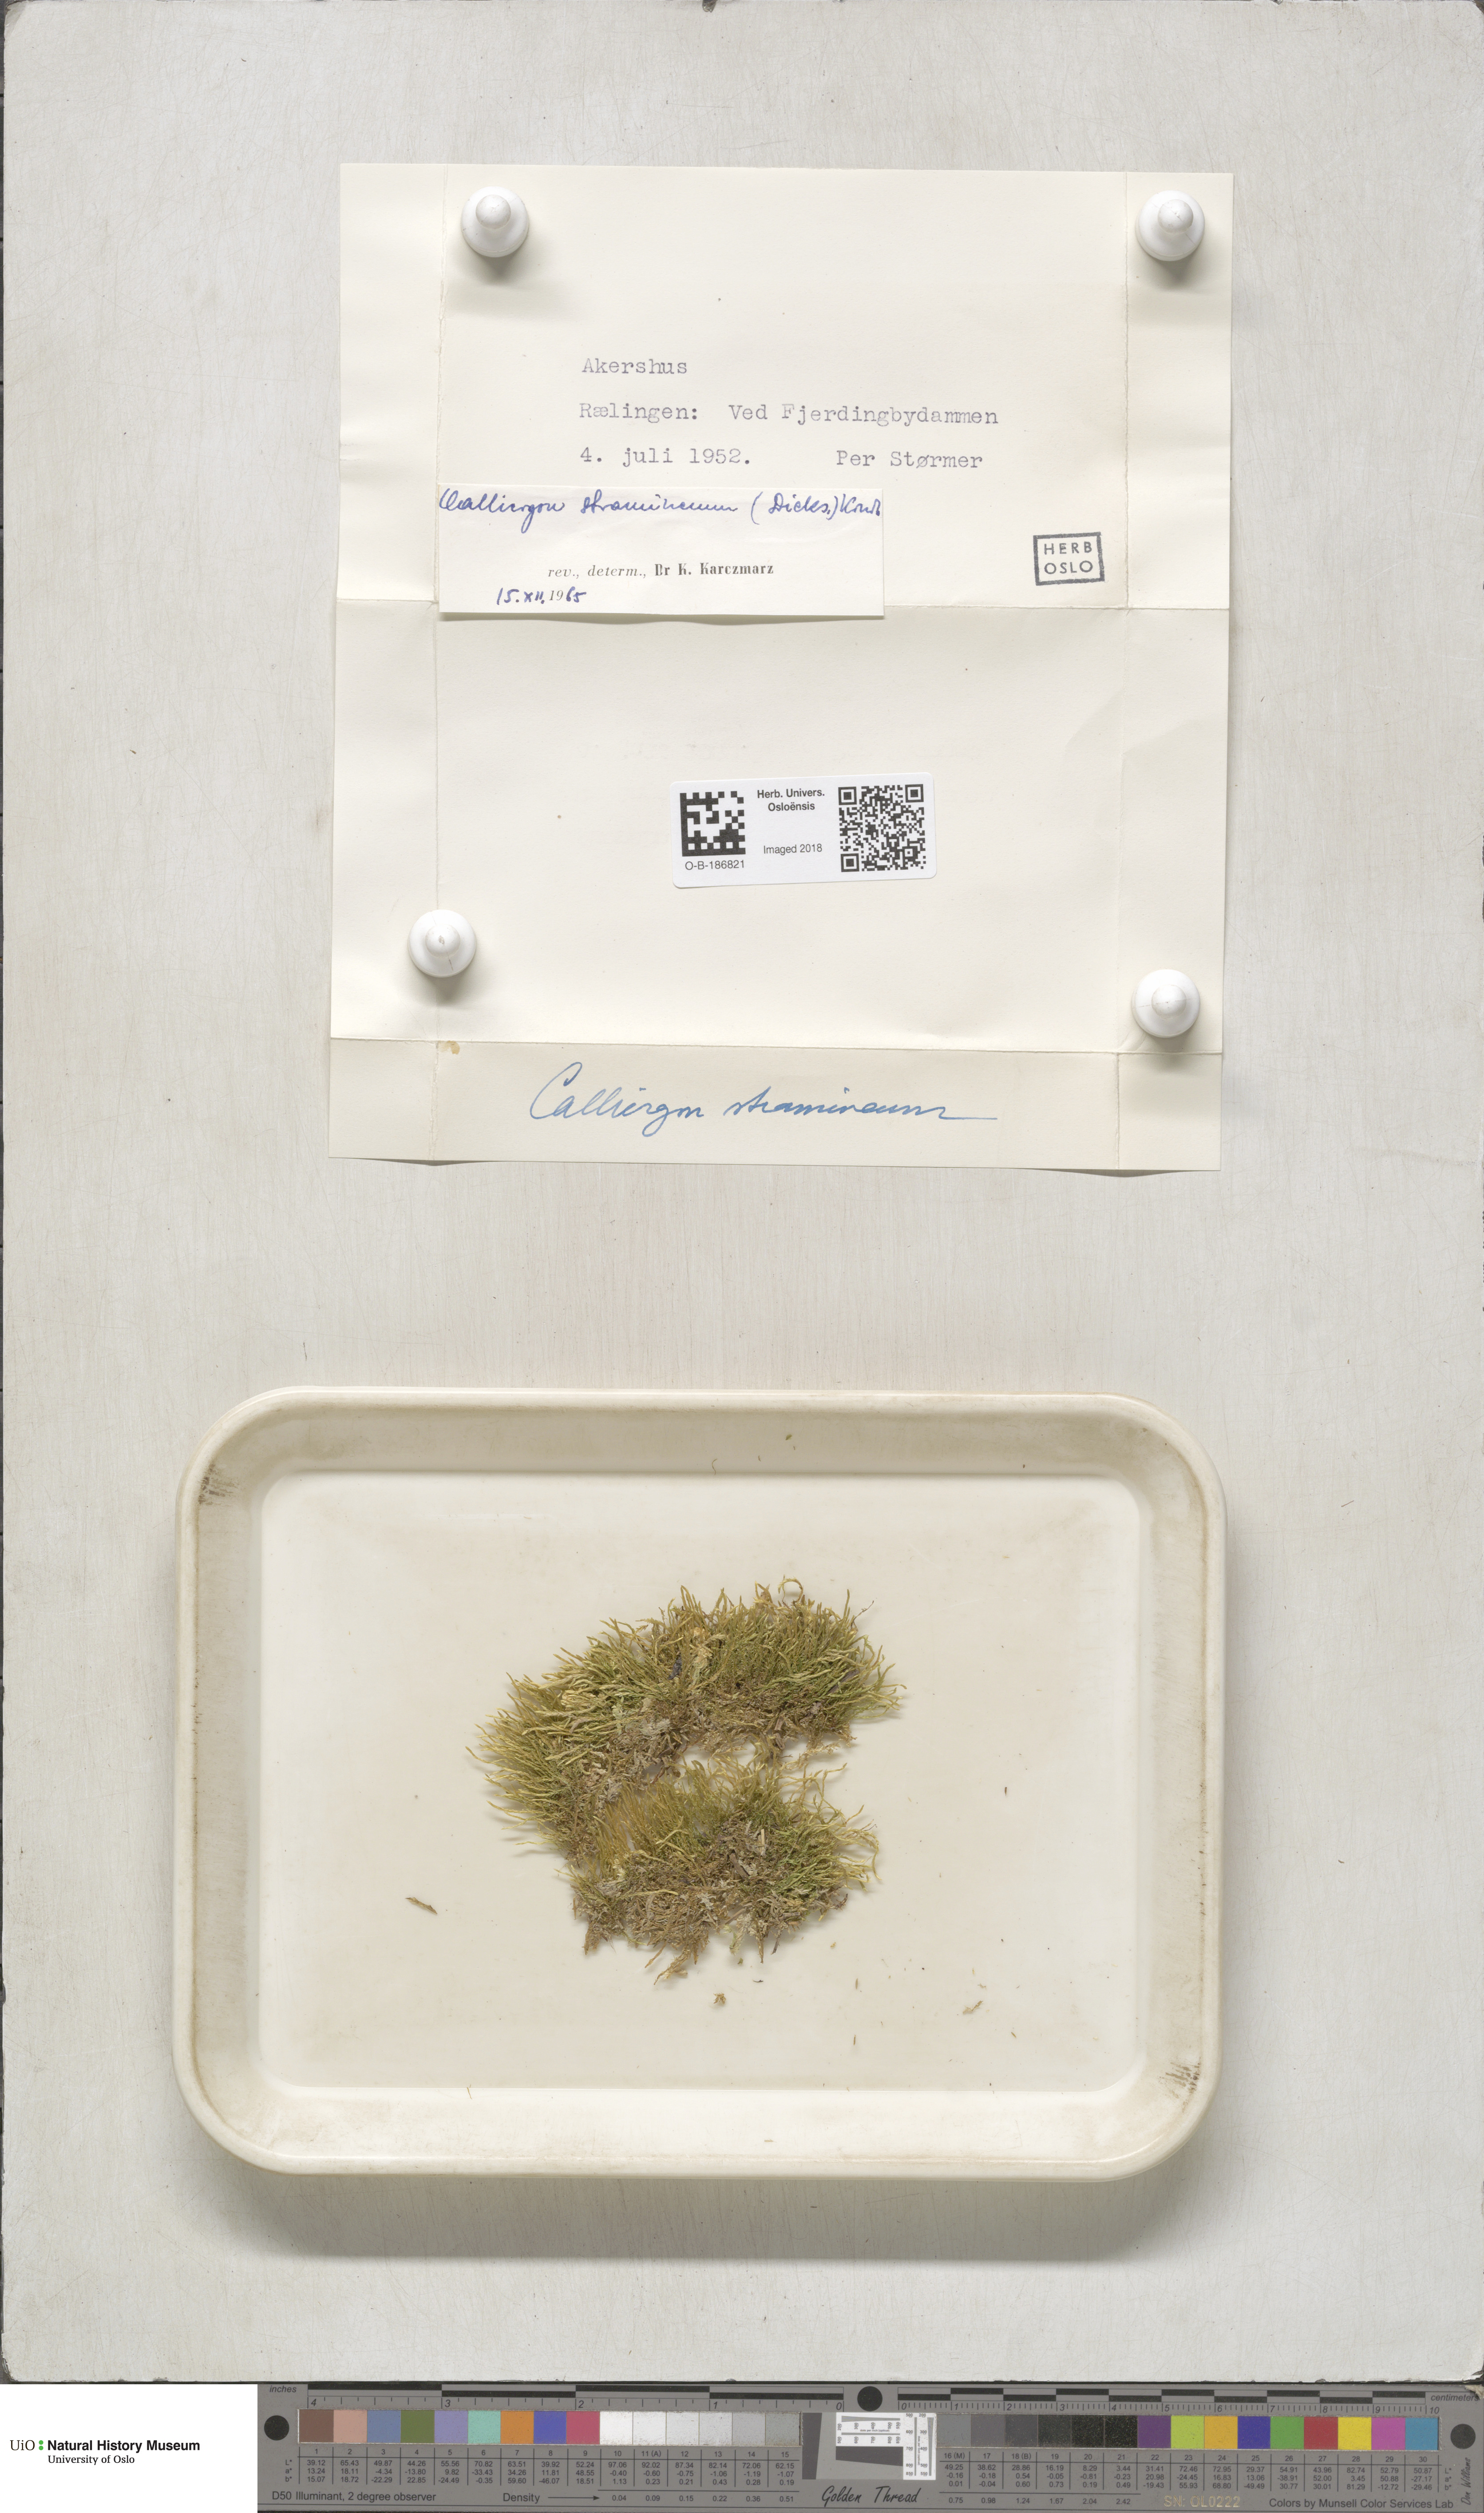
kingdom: Plantae
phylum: Bryophyta
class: Bryopsida
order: Hypnales
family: Calliergonaceae
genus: Straminergon
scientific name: Straminergon stramineum
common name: Straw moss
